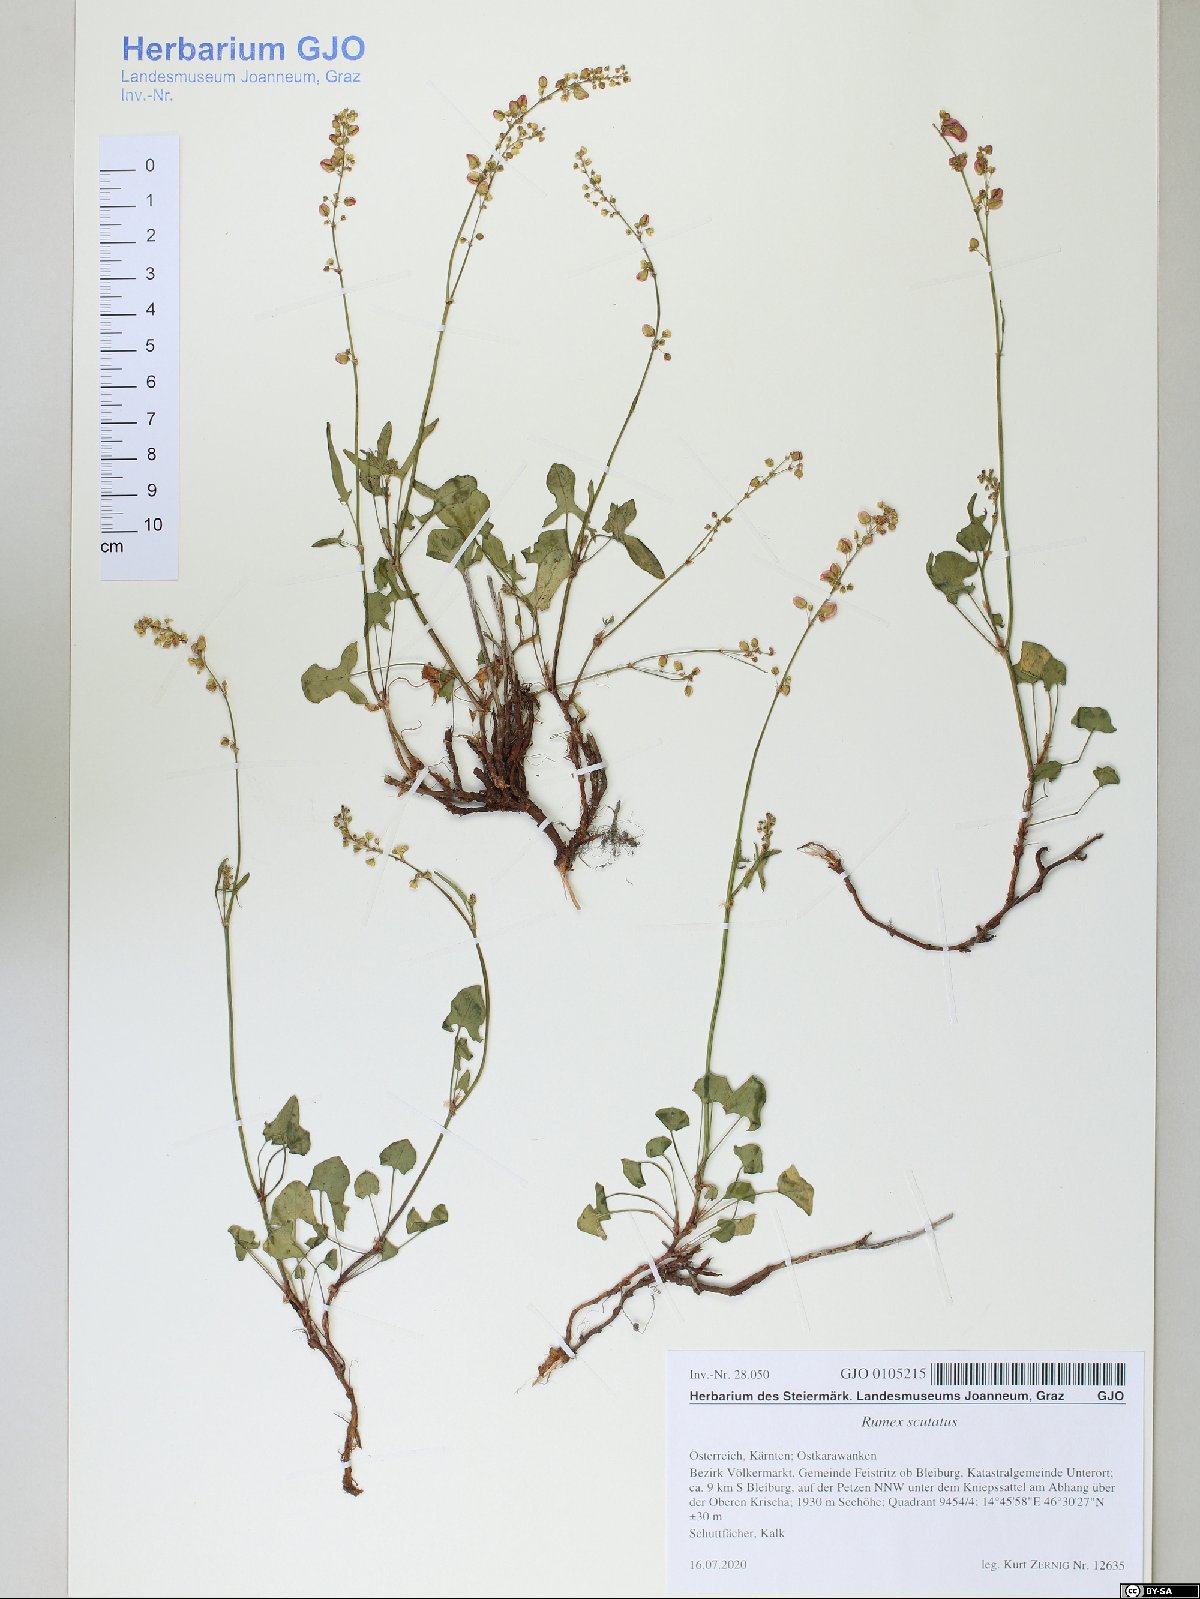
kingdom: Plantae
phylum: Tracheophyta
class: Magnoliopsida
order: Caryophyllales
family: Polygonaceae
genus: Rumex
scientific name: Rumex scutatus
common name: French sorrel
